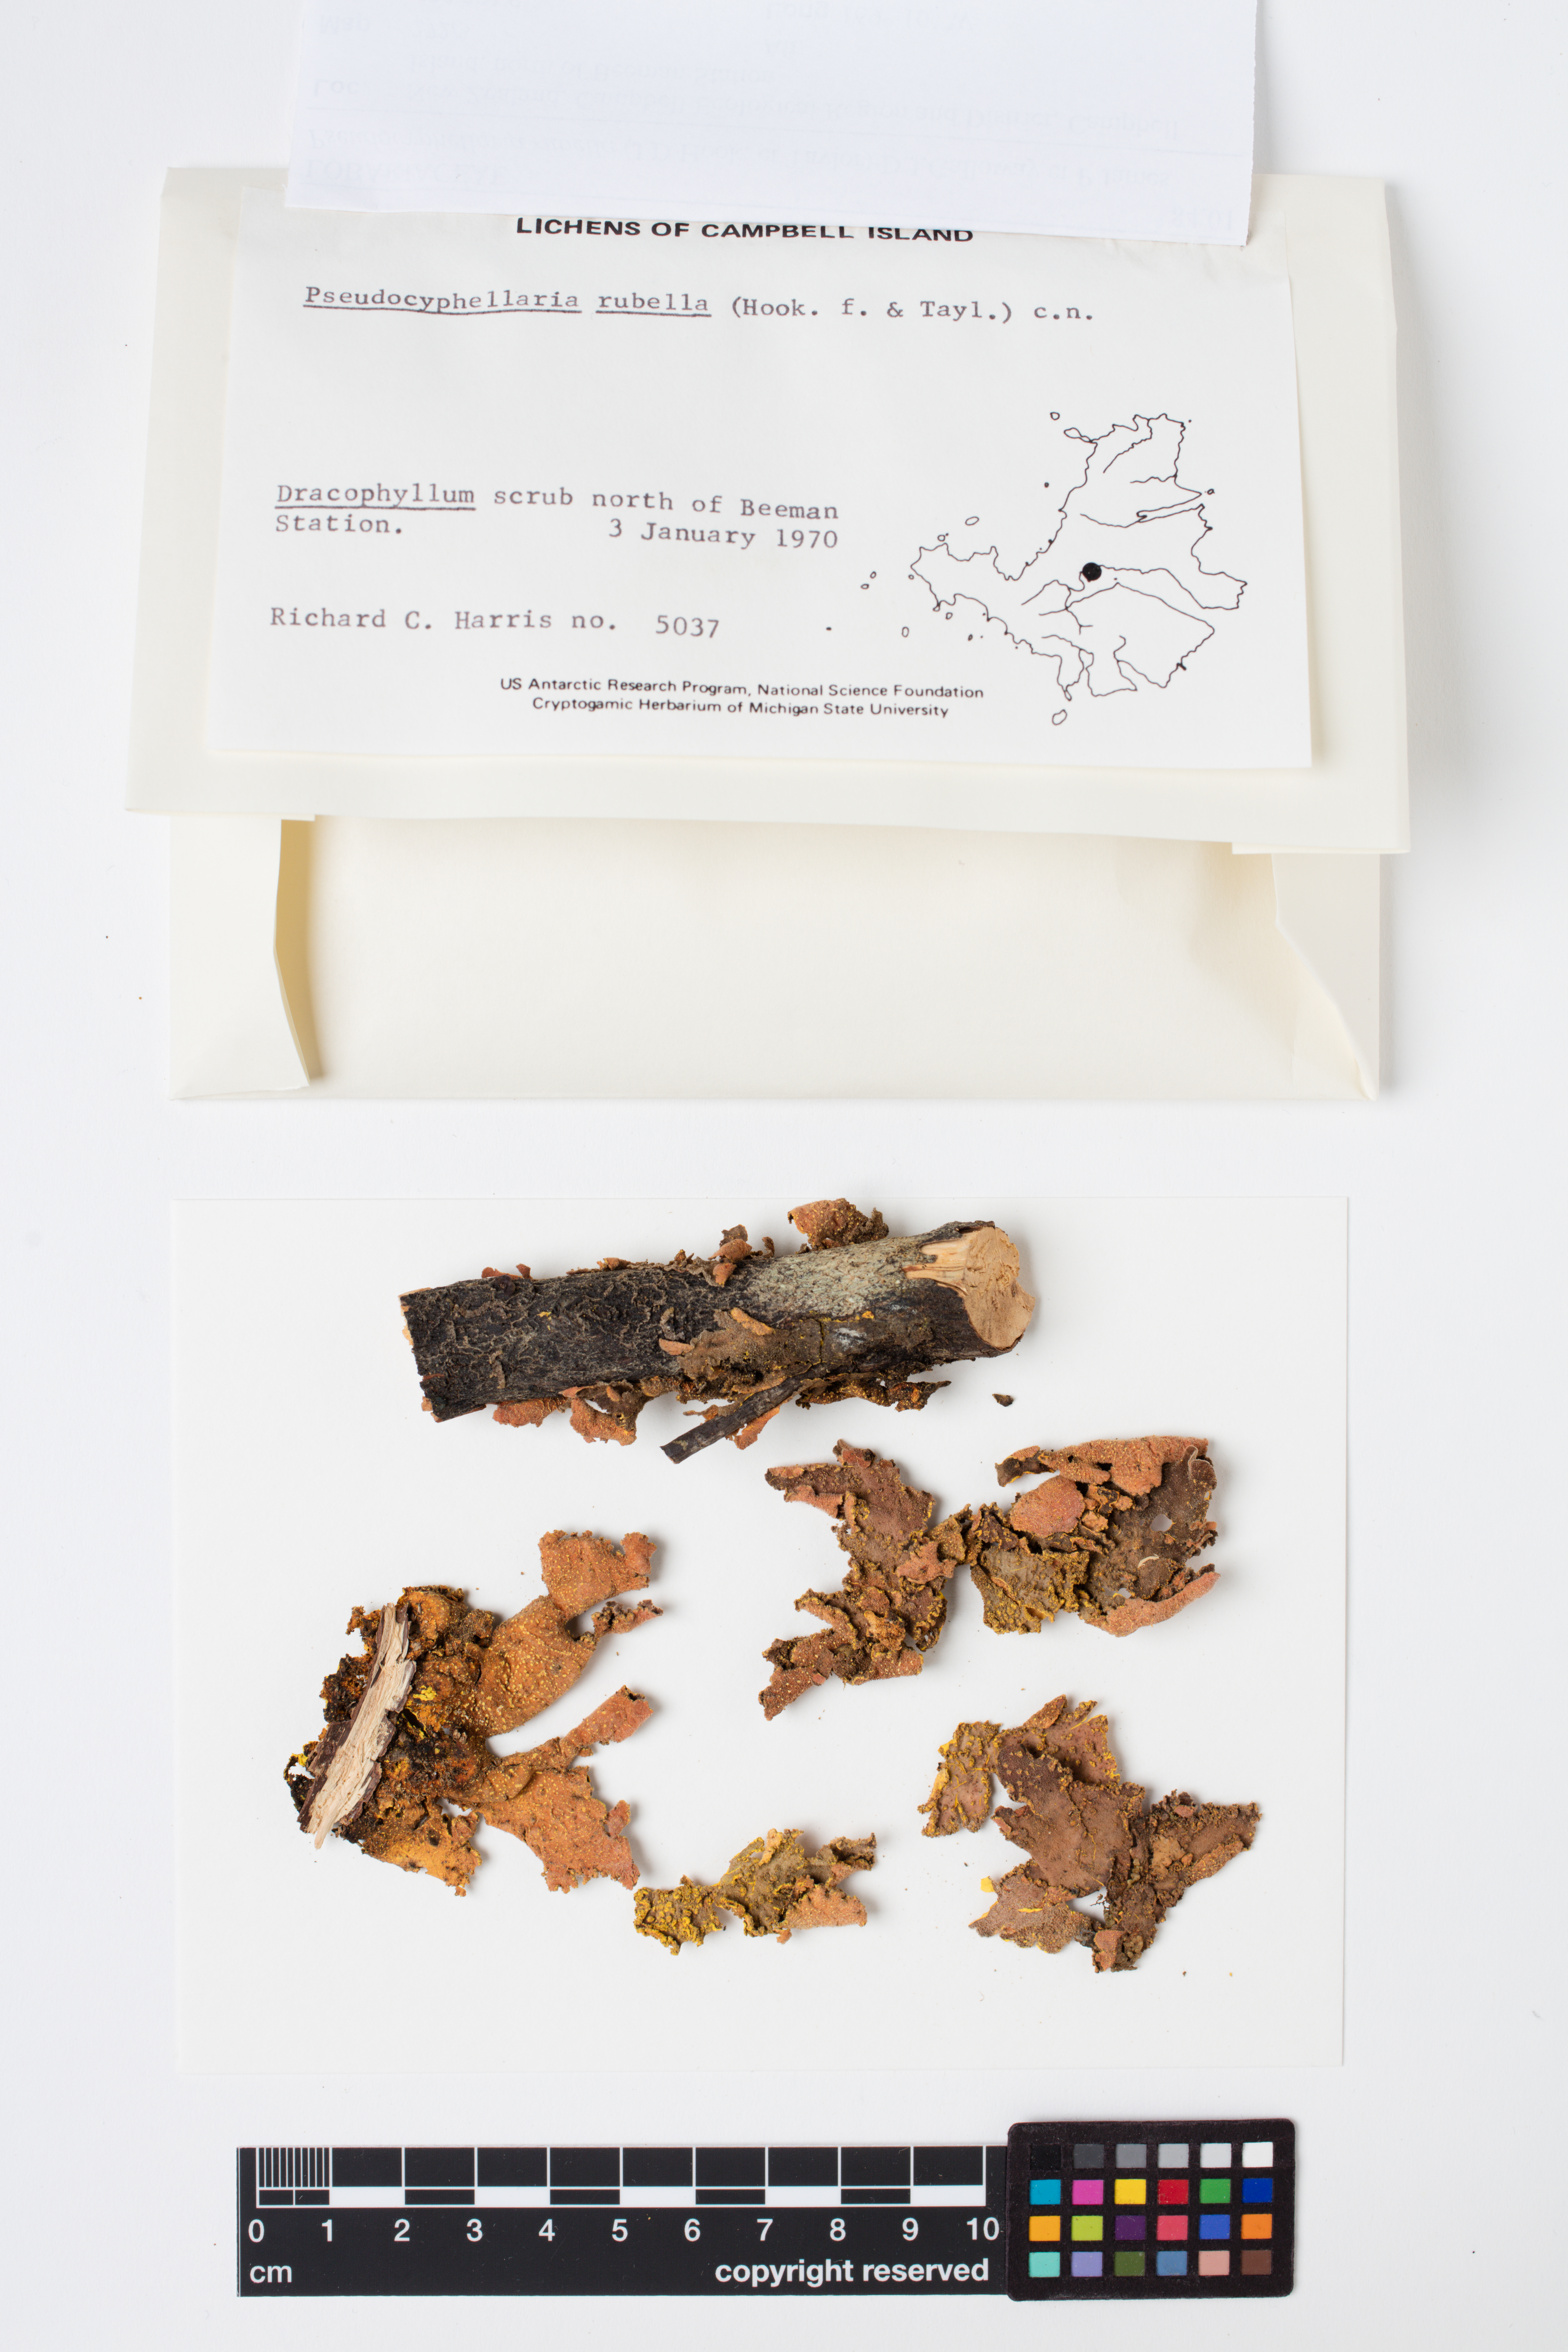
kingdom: Fungi
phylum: Ascomycota
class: Lecanoromycetes
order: Peltigerales
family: Lobariaceae
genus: Pseudocyphellaria
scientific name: Pseudocyphellaria rubella
